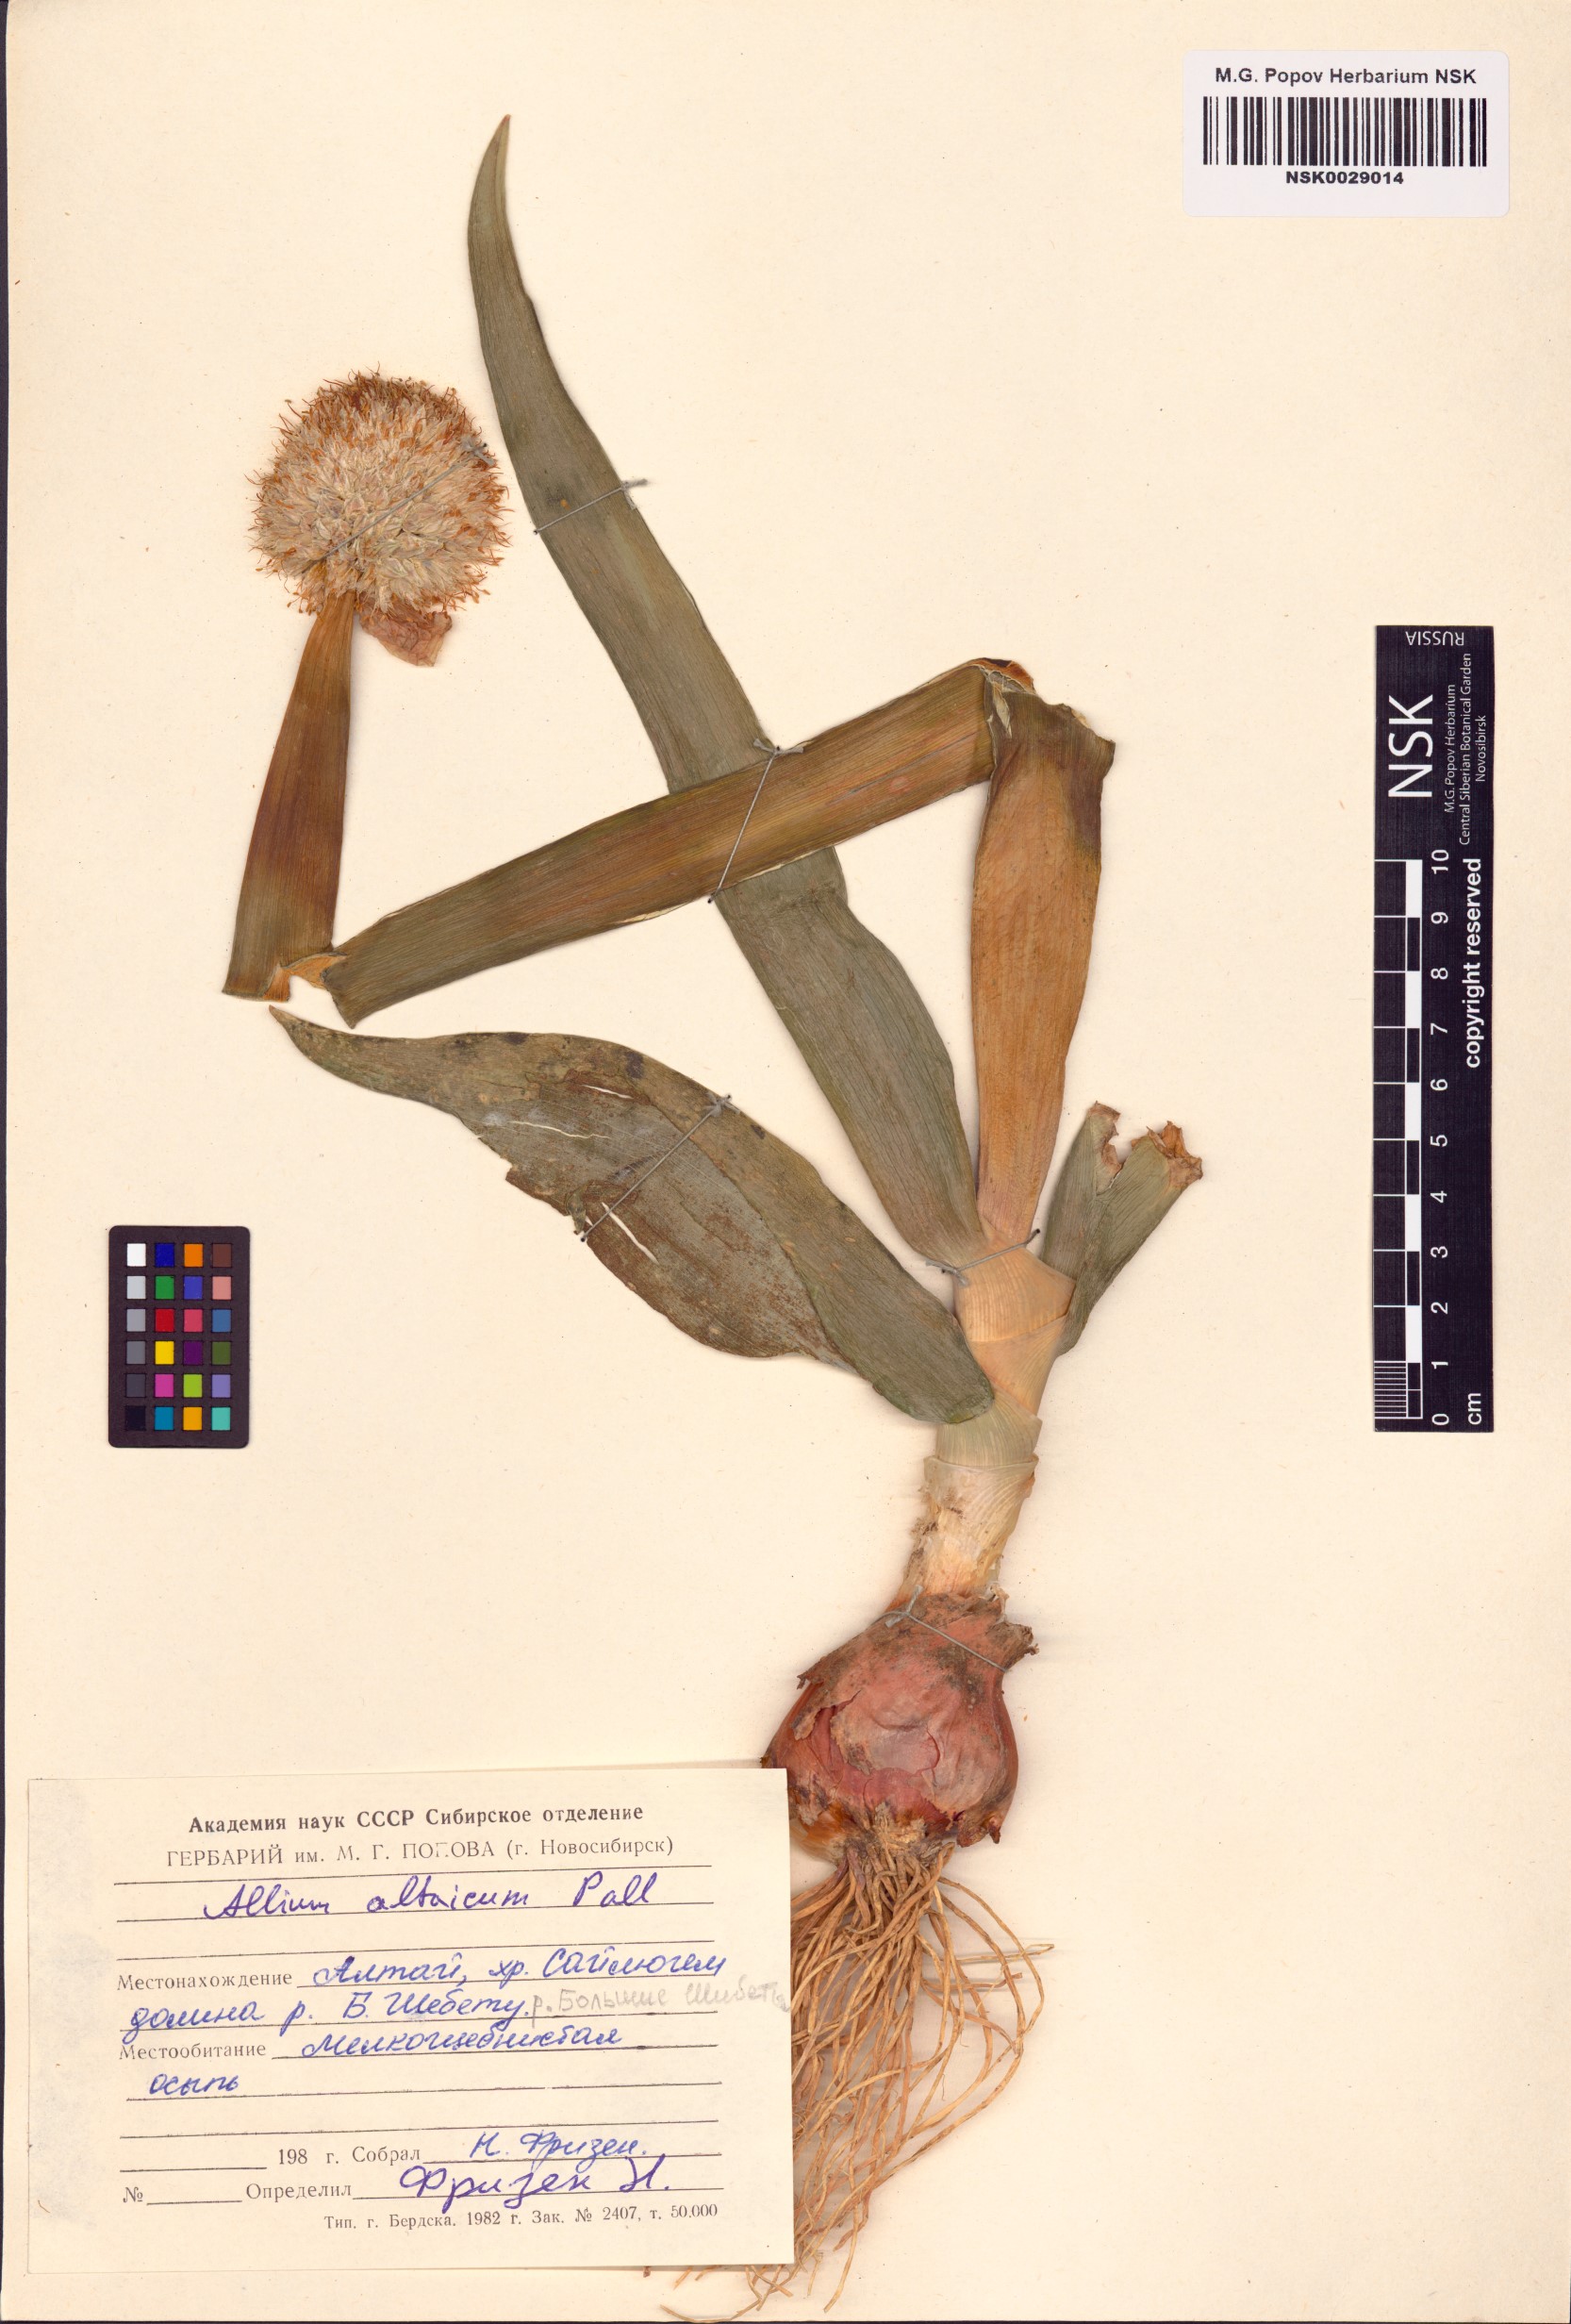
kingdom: Plantae
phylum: Tracheophyta
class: Liliopsida
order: Asparagales
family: Amaryllidaceae
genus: Allium
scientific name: Allium altaicum
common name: Altai onion
